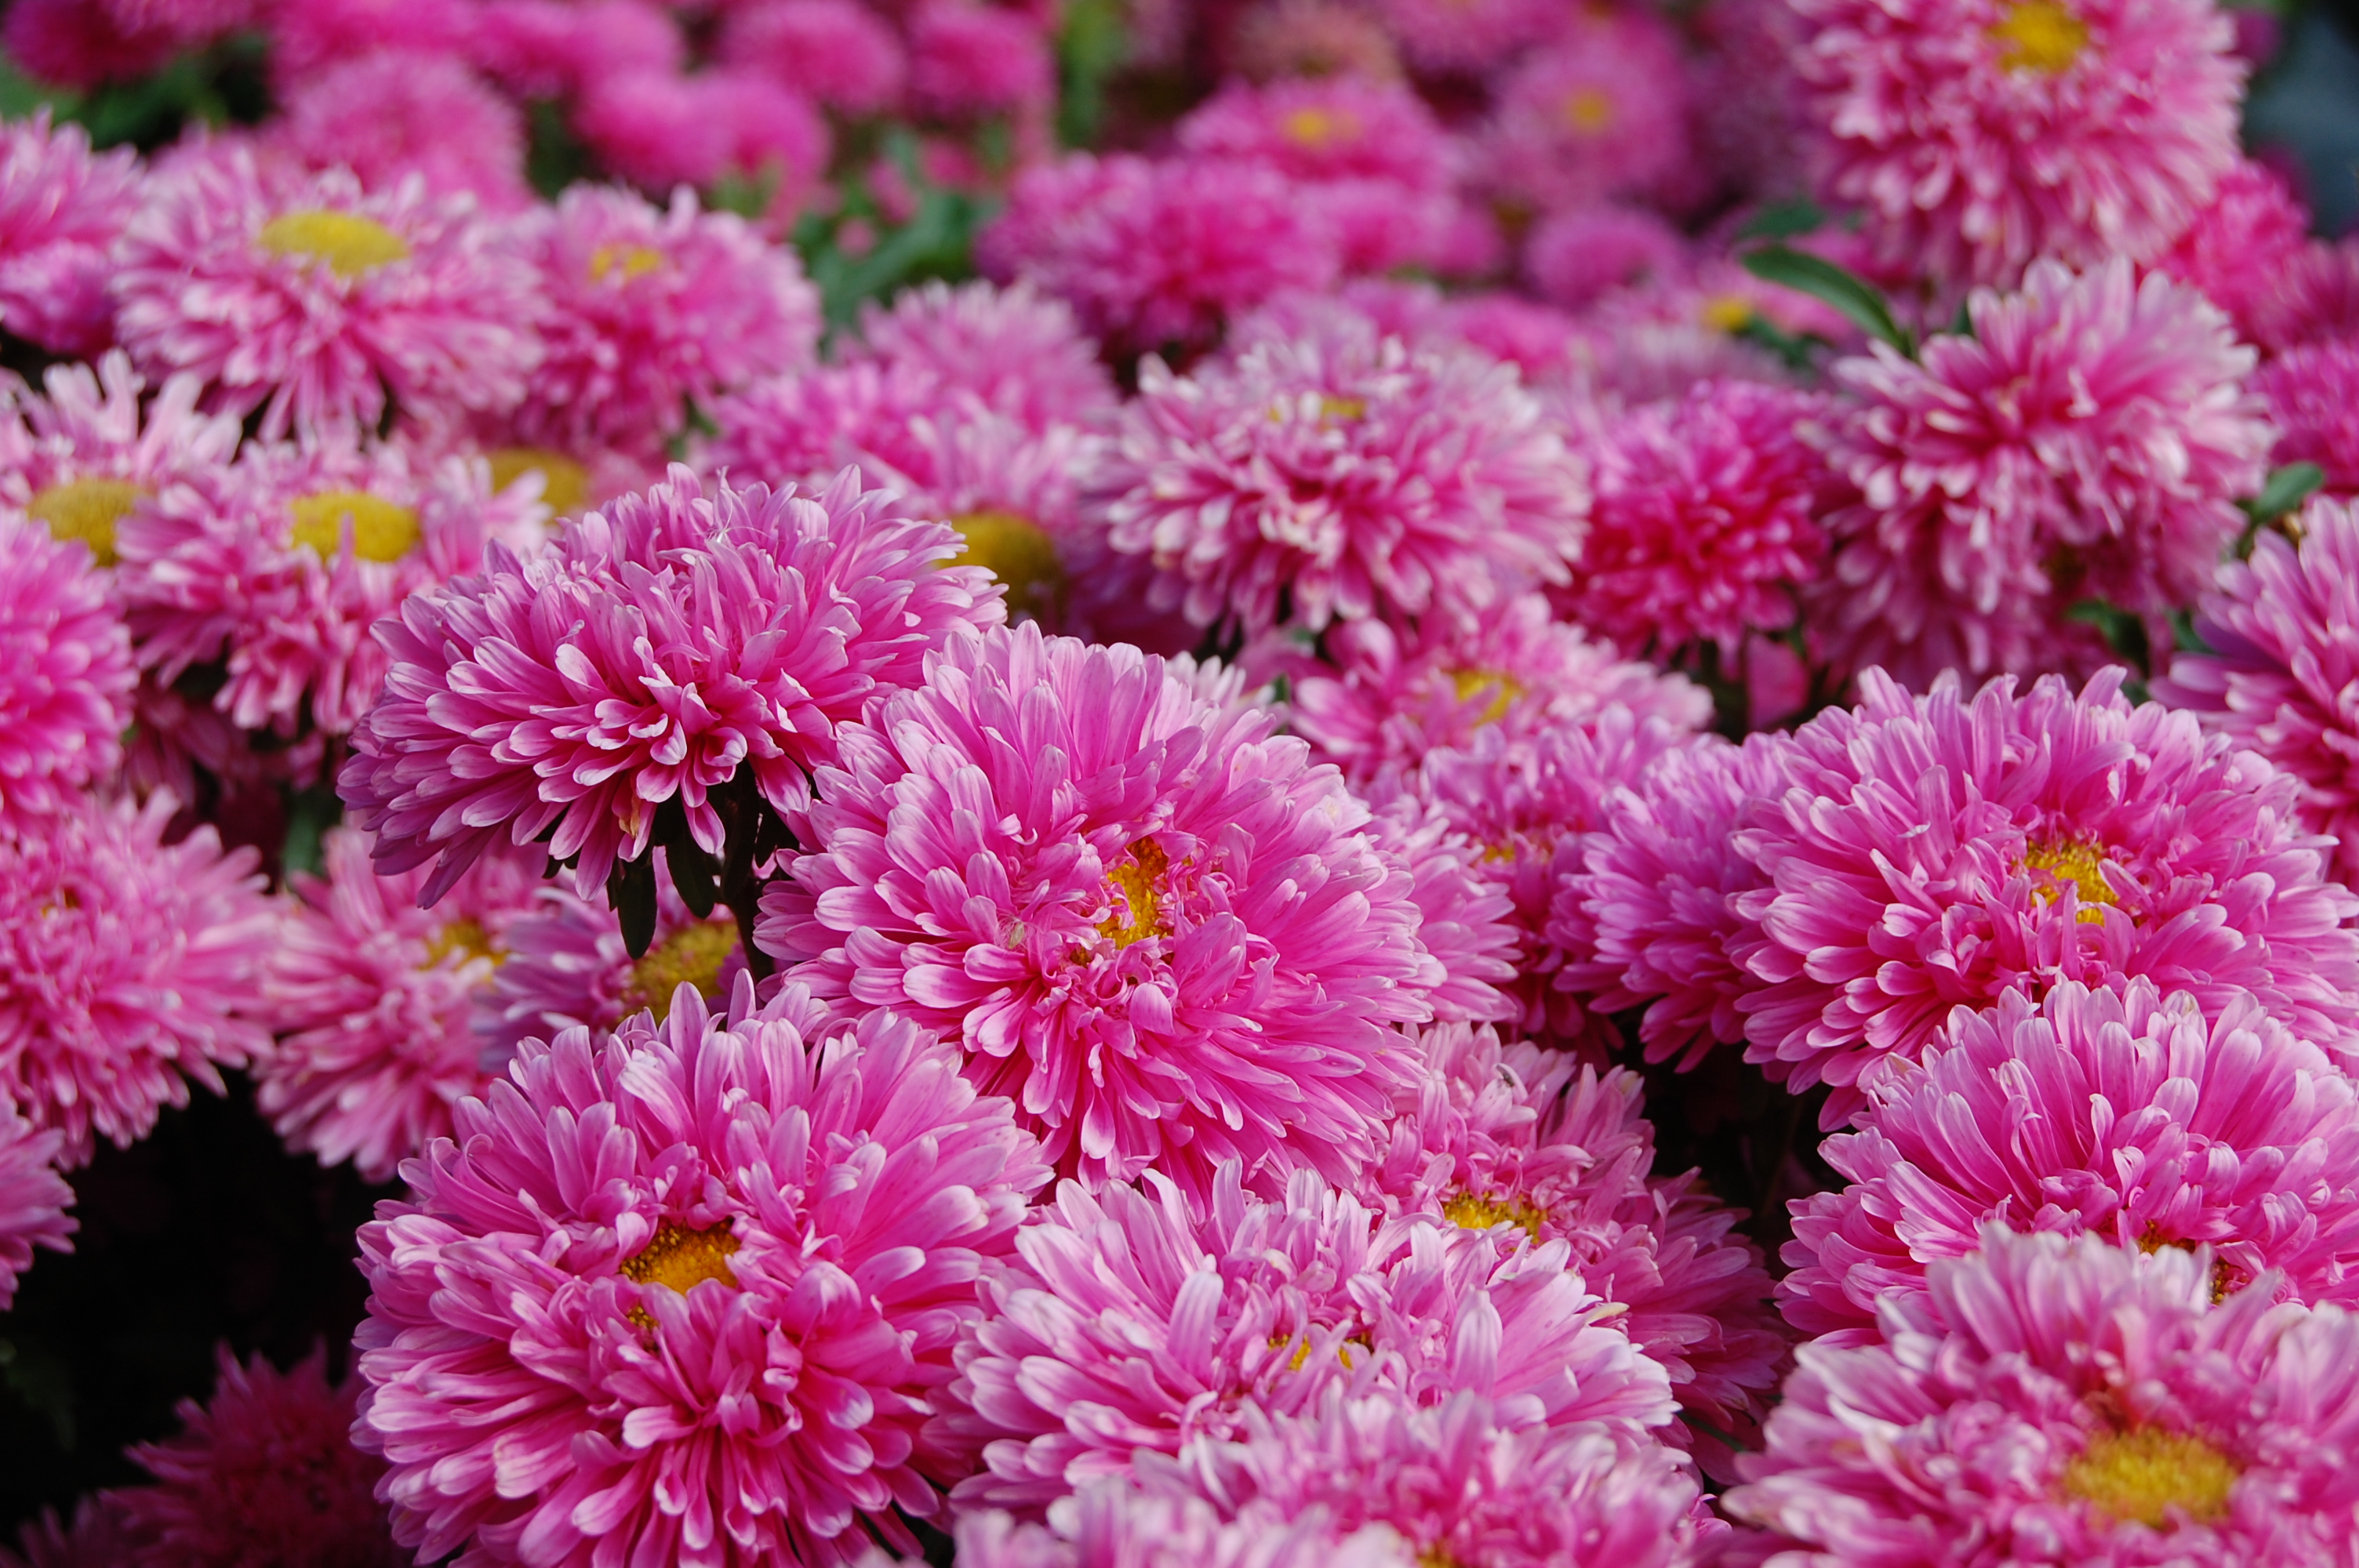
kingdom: Plantae
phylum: Tracheophyta
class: Magnoliopsida
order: Asterales
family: Asteraceae
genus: Callistephus
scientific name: Callistephus chinensis
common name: China aster
